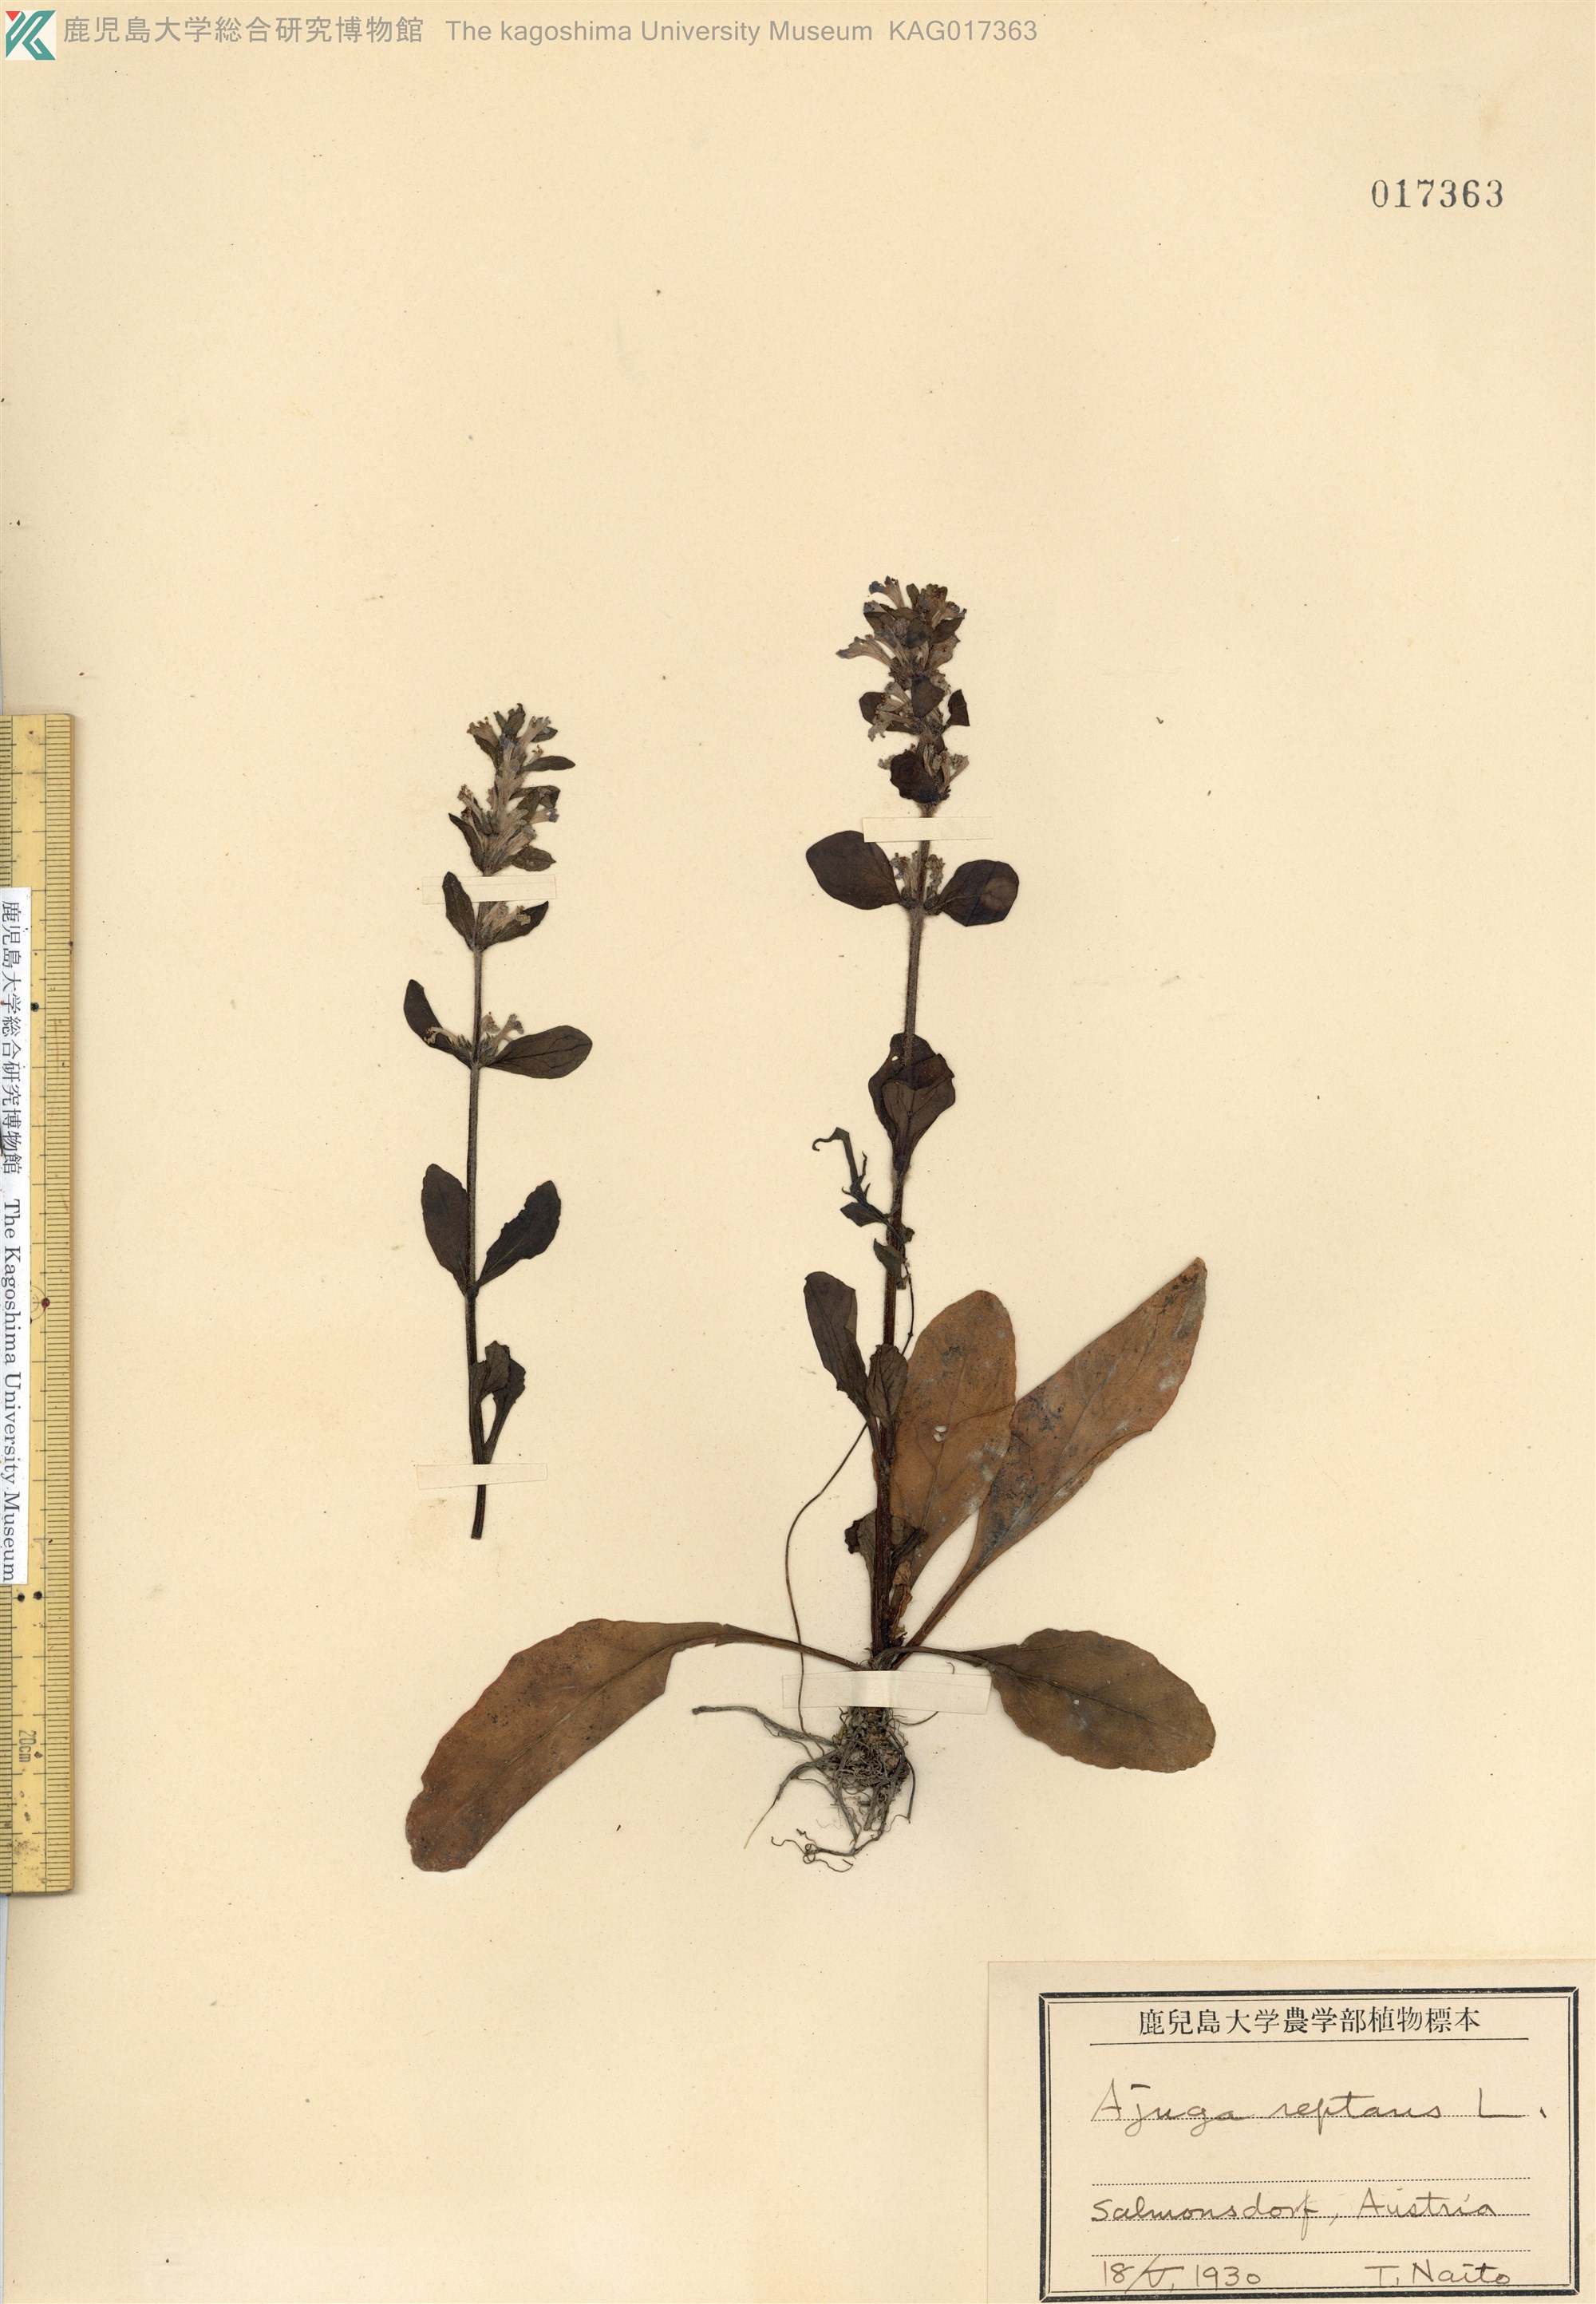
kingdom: Plantae
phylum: Tracheophyta
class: Magnoliopsida
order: Lamiales
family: Lamiaceae
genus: Ajuga
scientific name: Ajuga reptans
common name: Bugle
